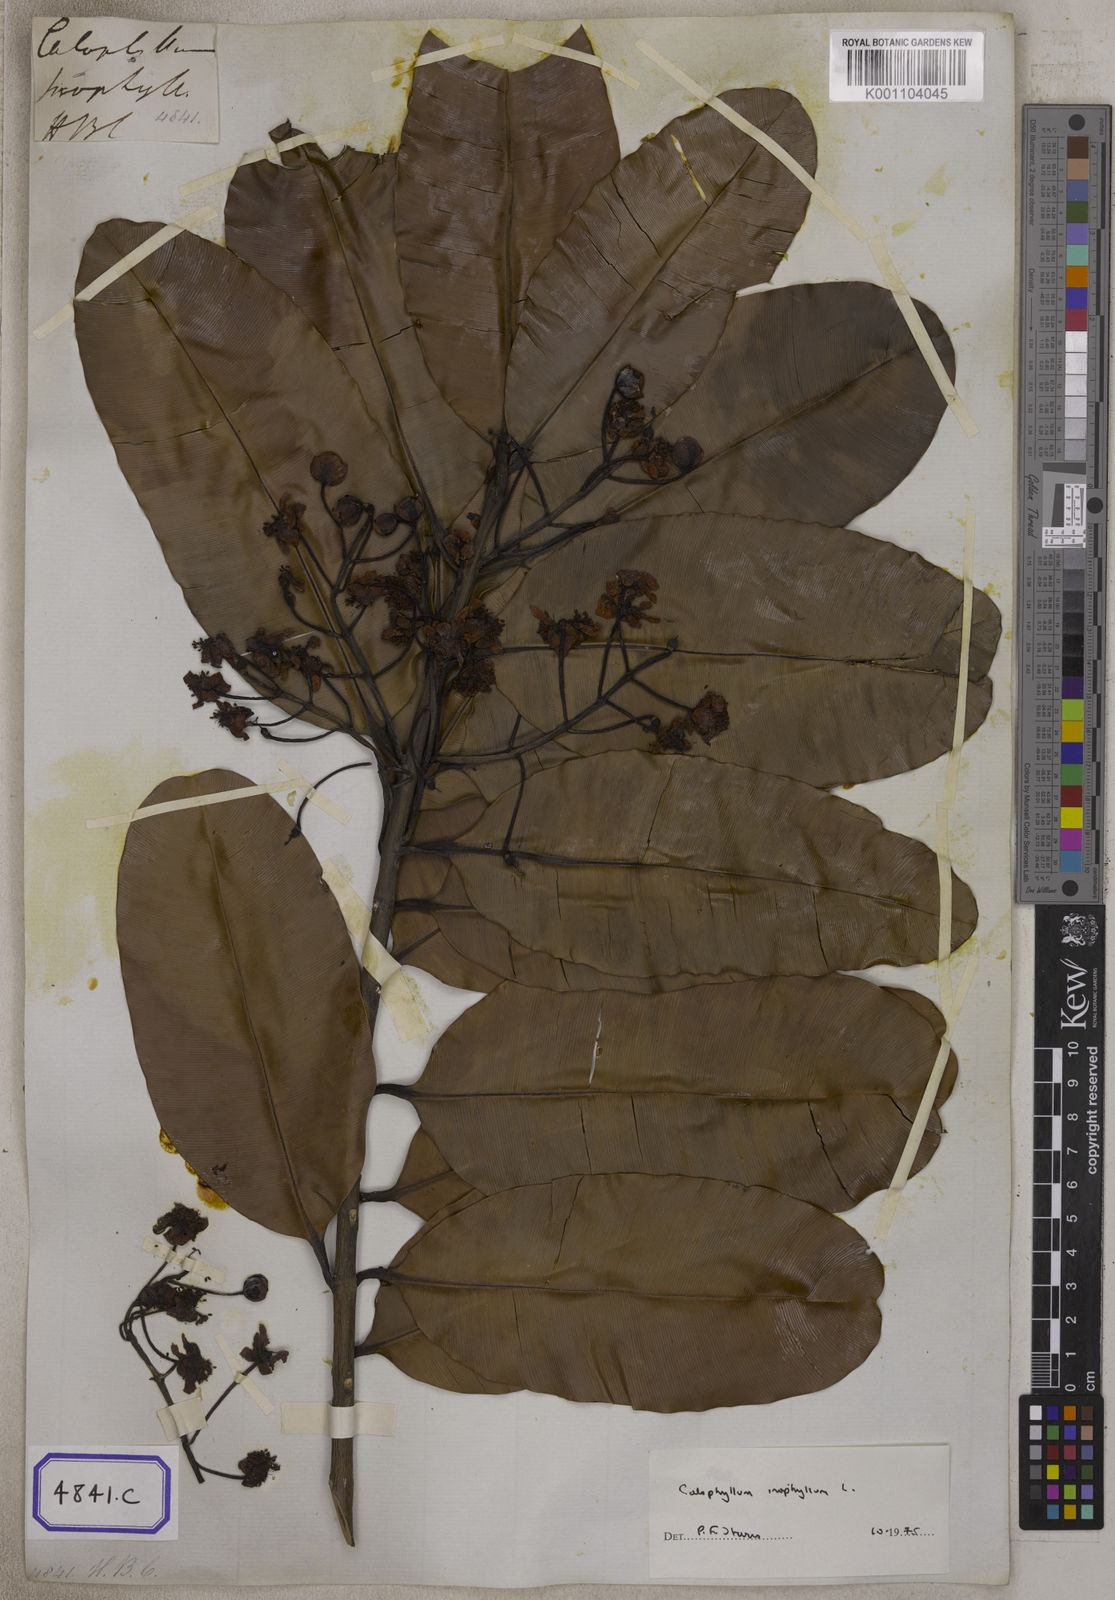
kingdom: Plantae
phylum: Tracheophyta
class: Magnoliopsida
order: Malpighiales
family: Calophyllaceae
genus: Calophyllum
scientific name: Calophyllum inophyllum
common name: Alexandrian laurel
